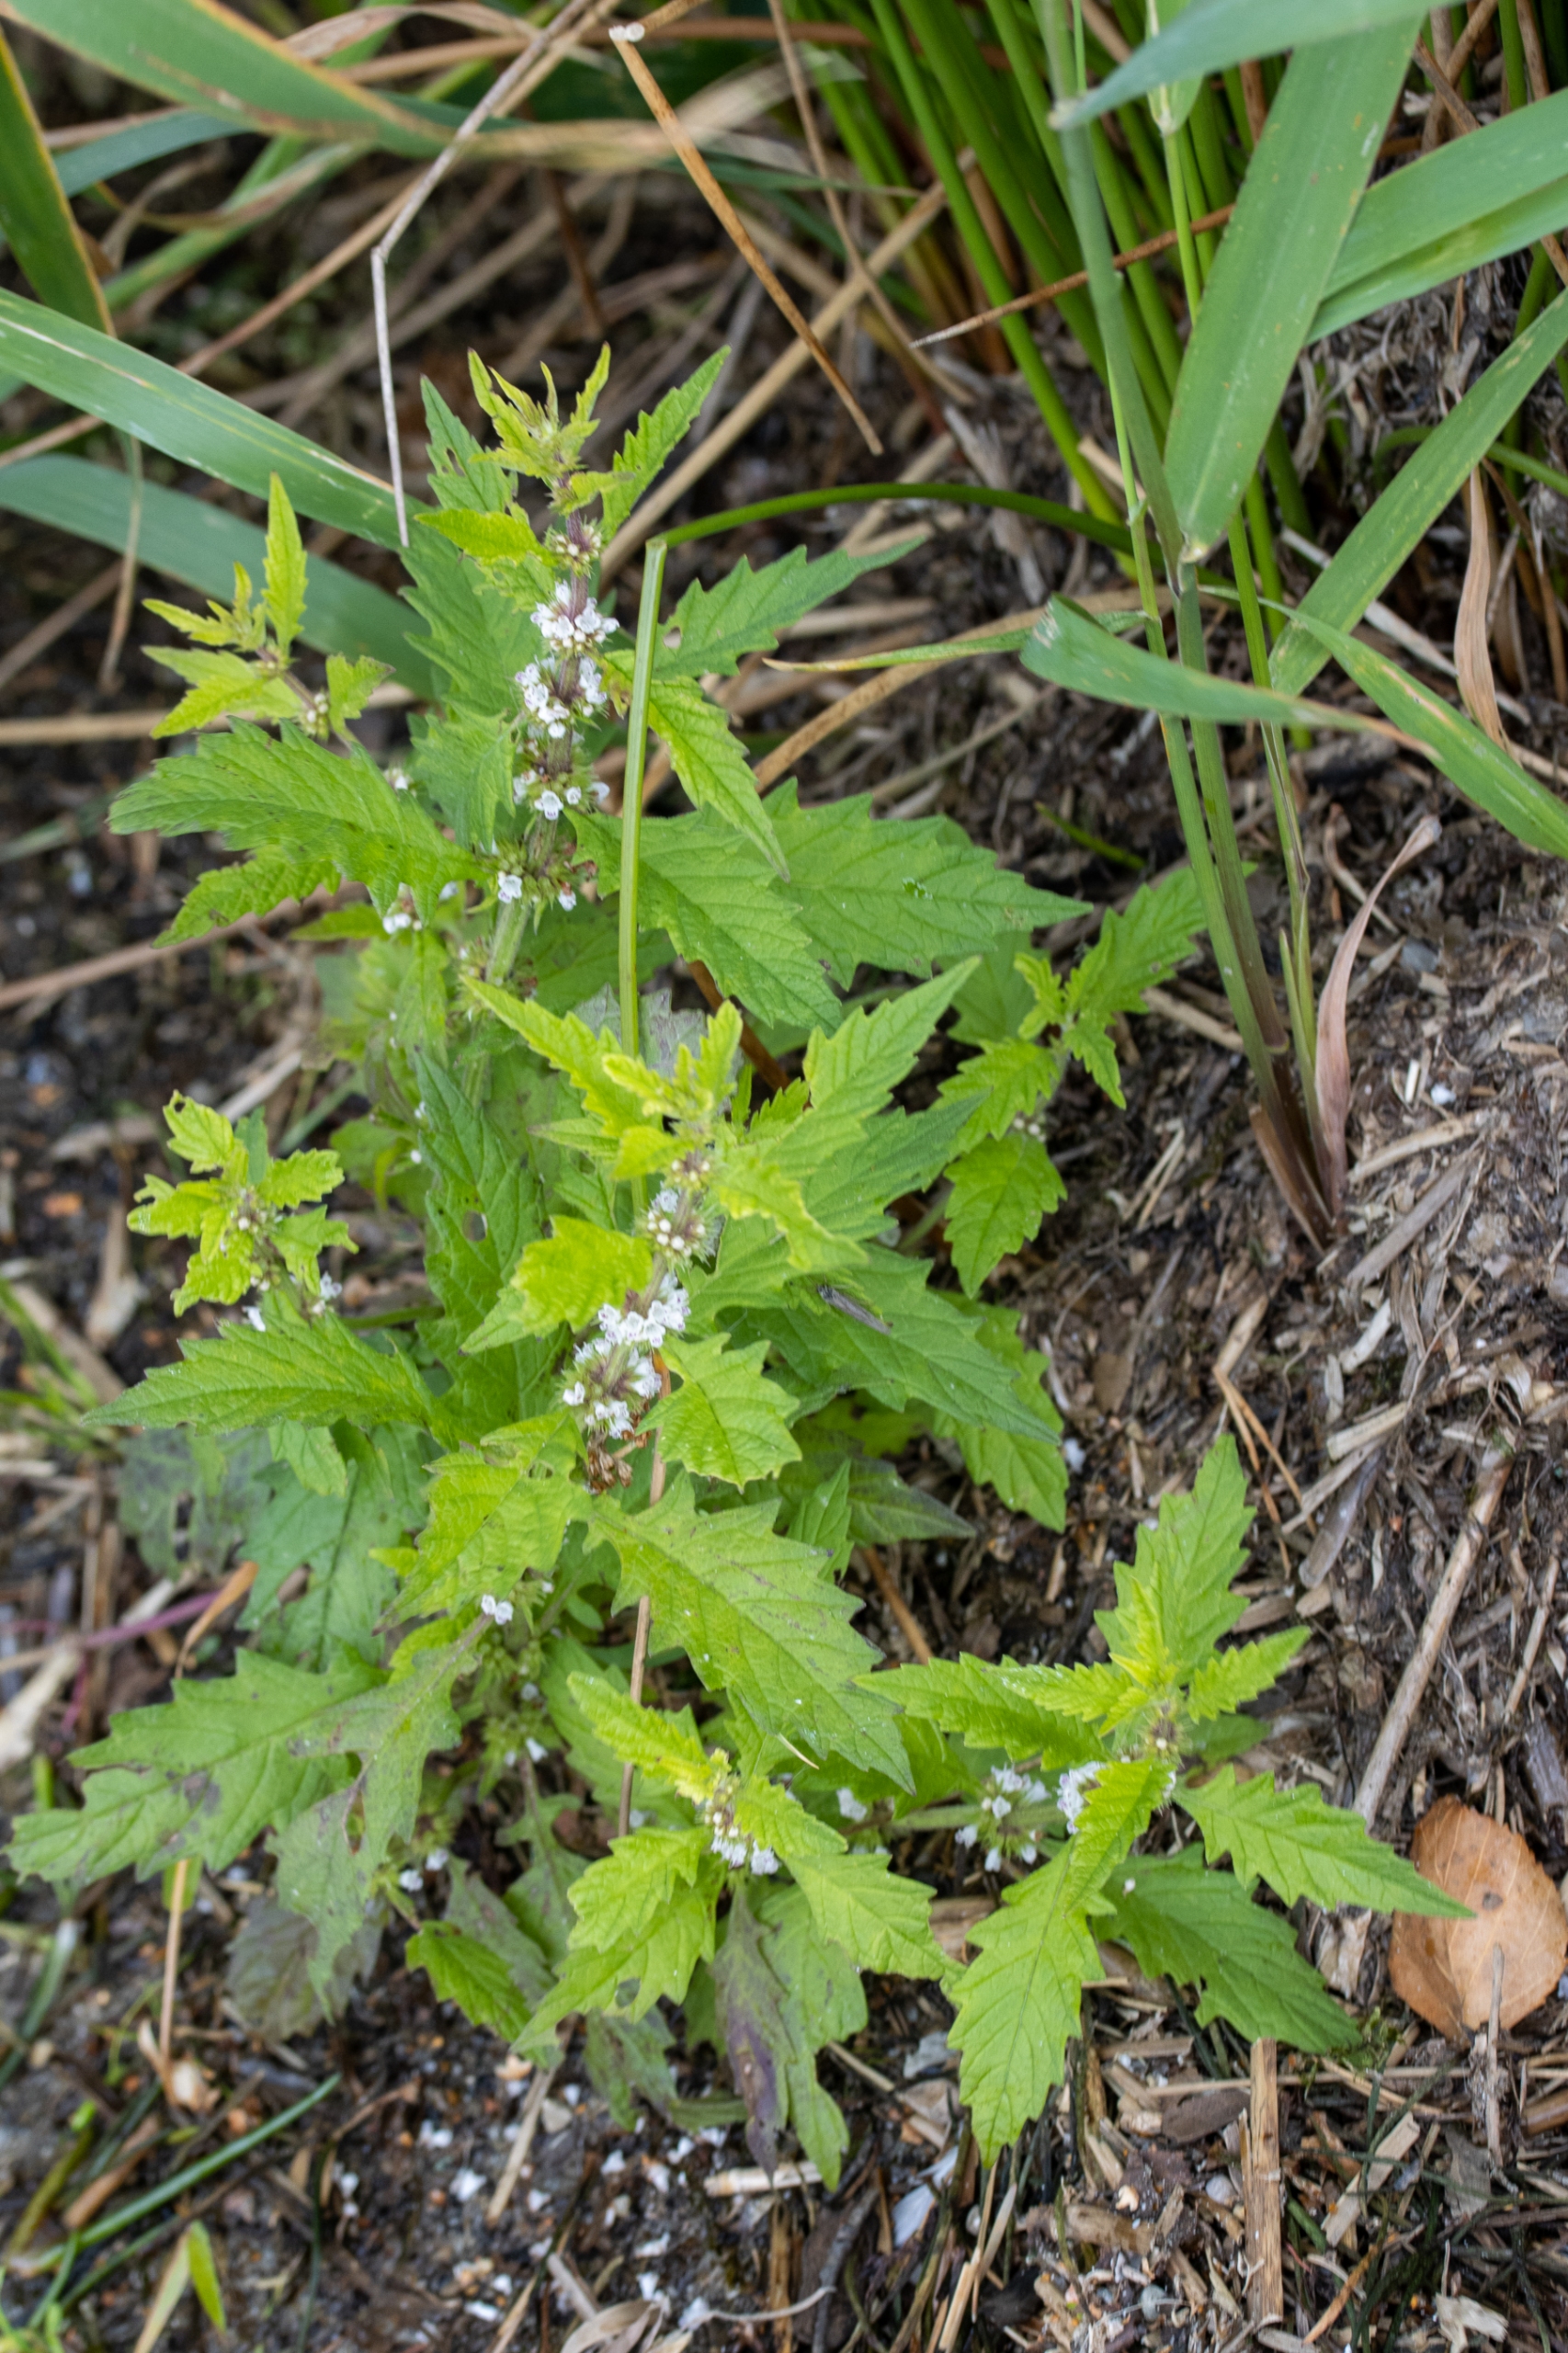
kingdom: Plantae
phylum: Tracheophyta
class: Magnoliopsida
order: Lamiales
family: Lamiaceae
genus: Lycopus
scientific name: Lycopus europaeus
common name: Sværtevæld
